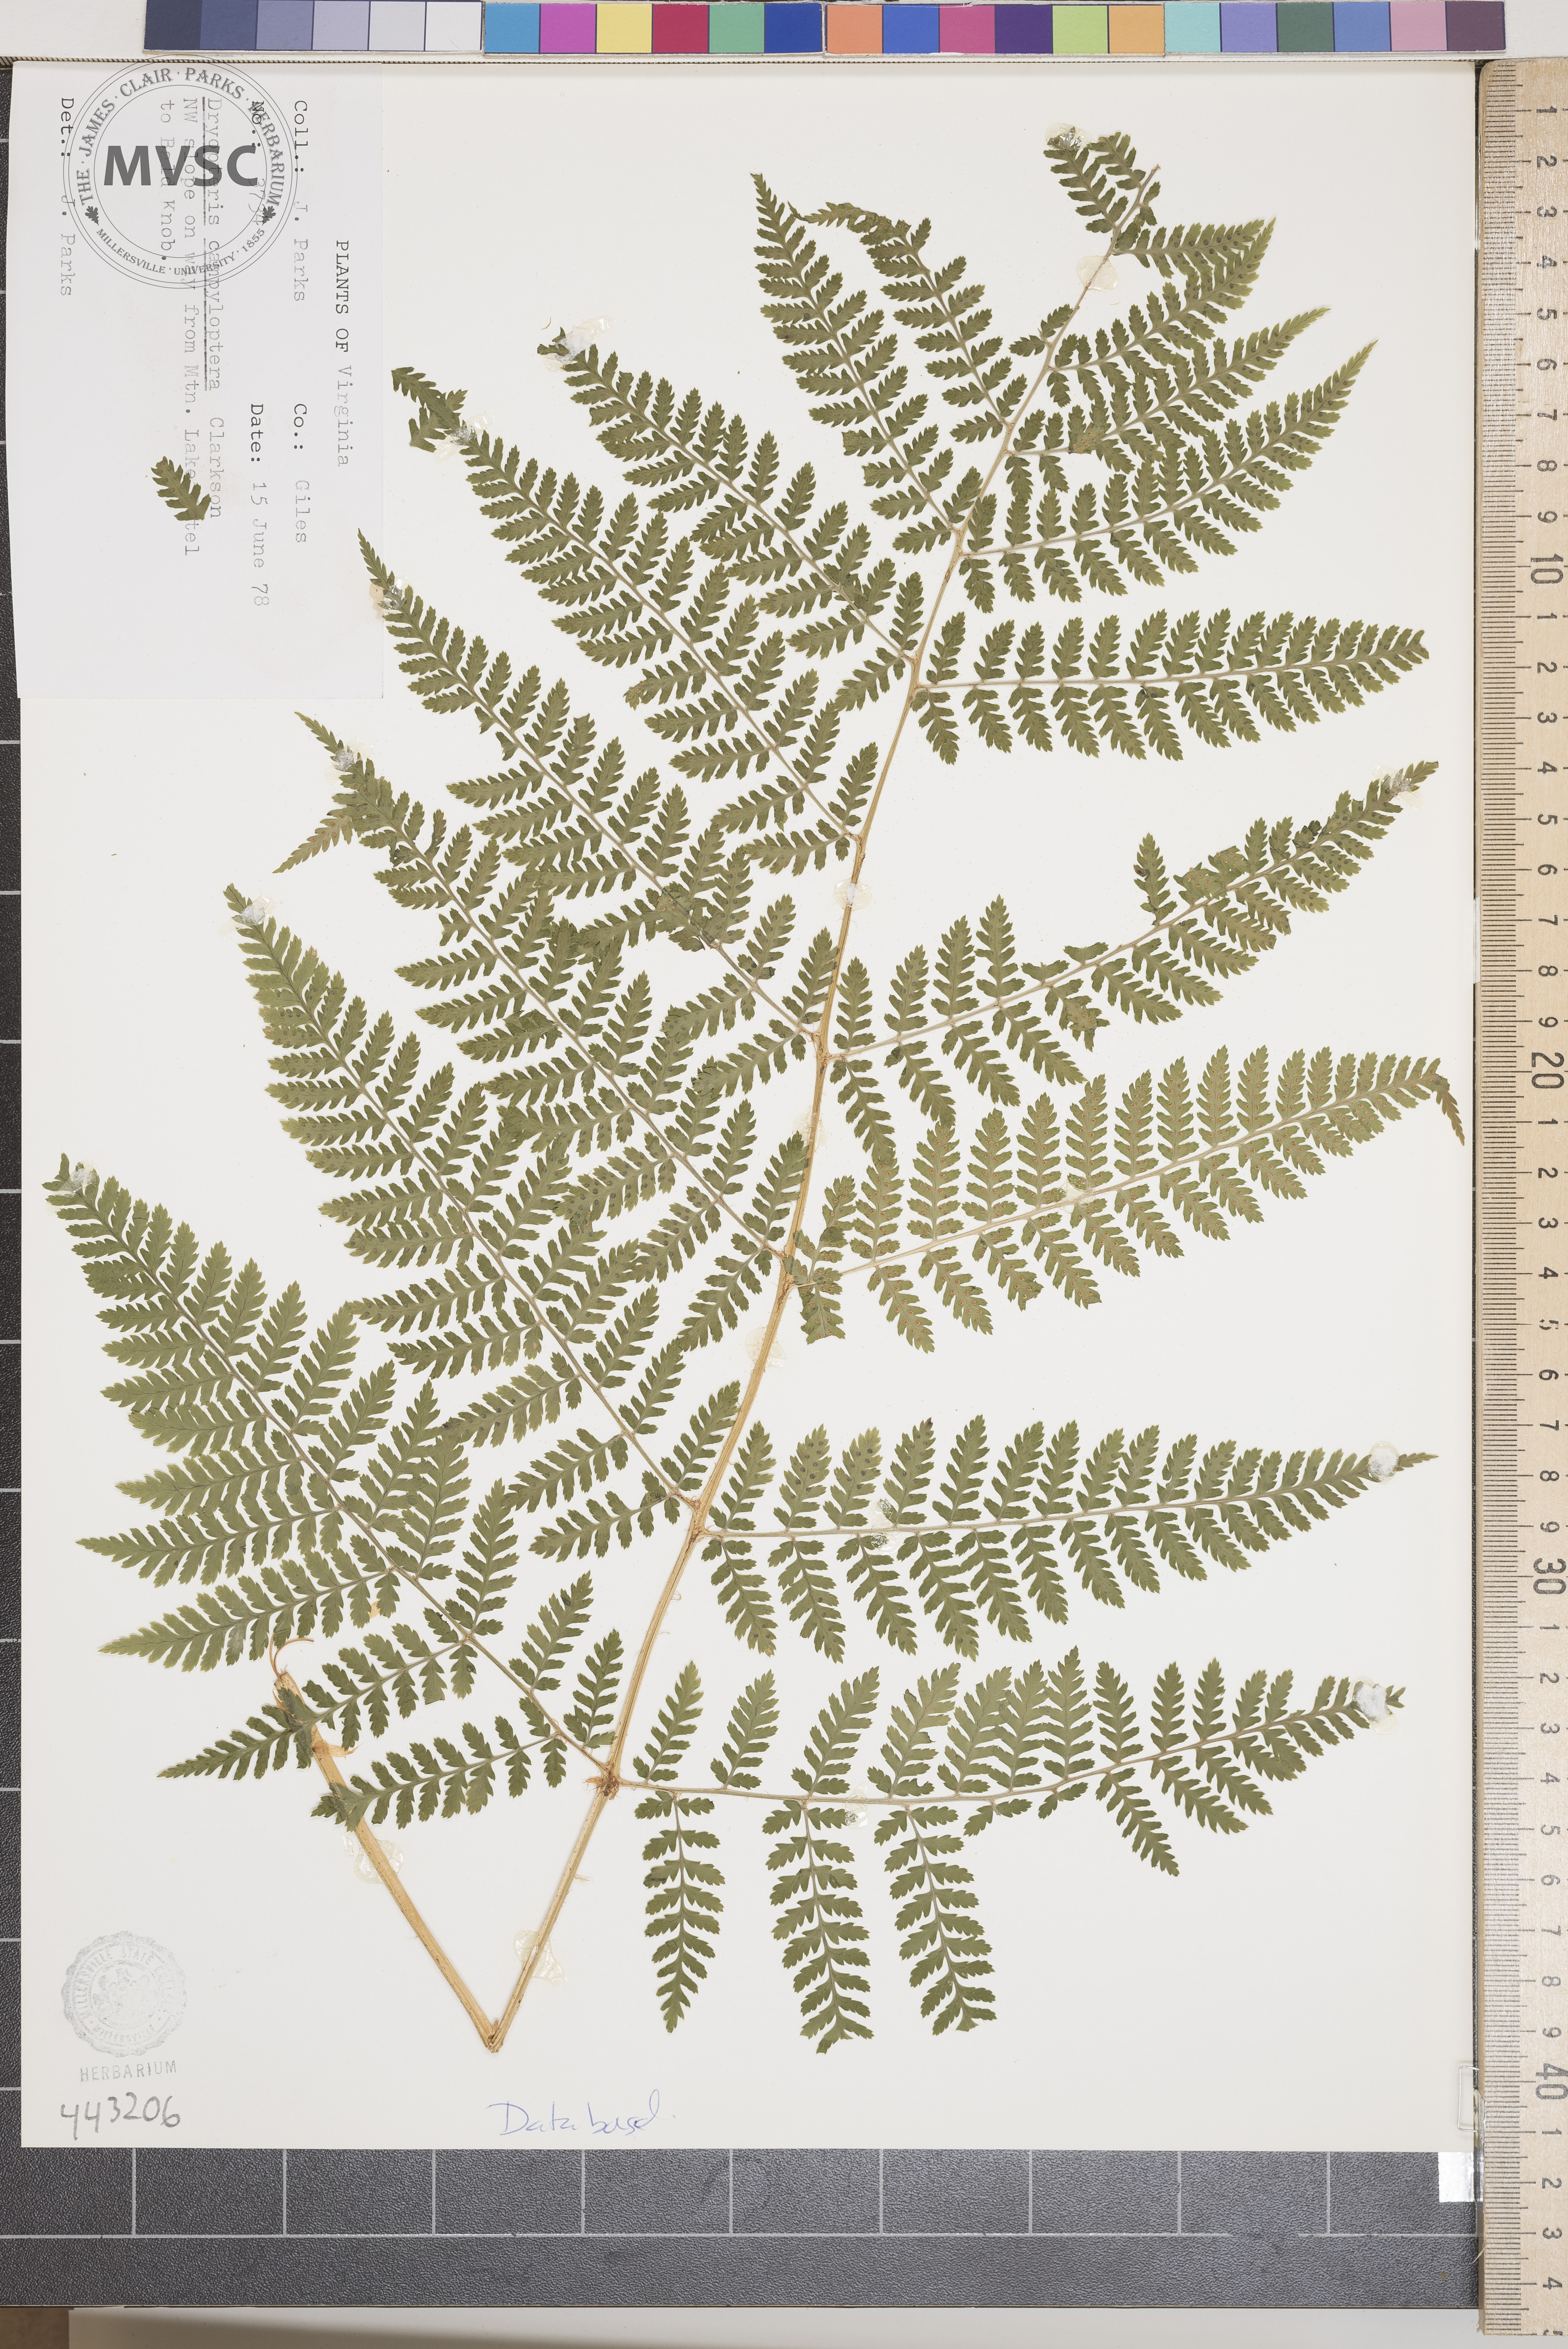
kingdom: Plantae
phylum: Tracheophyta
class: Polypodiopsida
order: Polypodiales
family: Dryopteridaceae
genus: Dryopteris
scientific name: Dryopteris campyloptera
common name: Mountain wood fern
